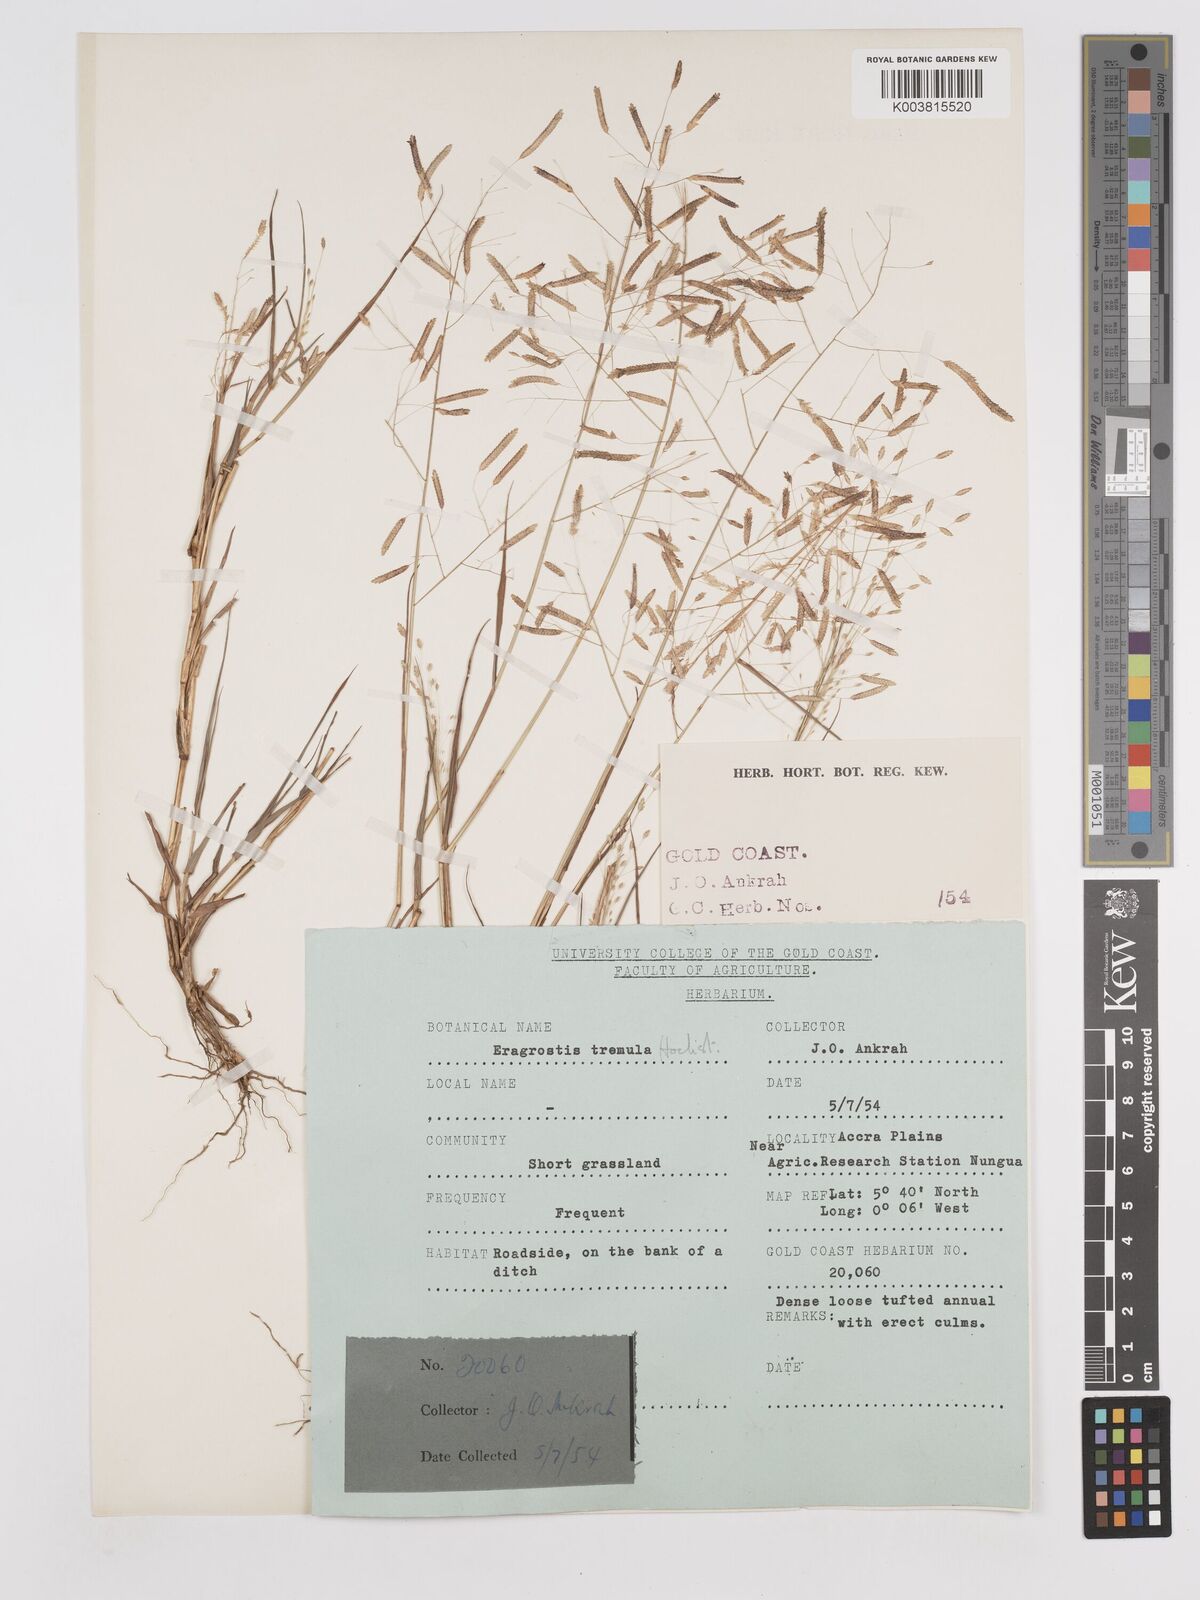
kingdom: Plantae
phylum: Tracheophyta
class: Liliopsida
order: Poales
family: Poaceae
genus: Eragrostis
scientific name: Eragrostis tremula
